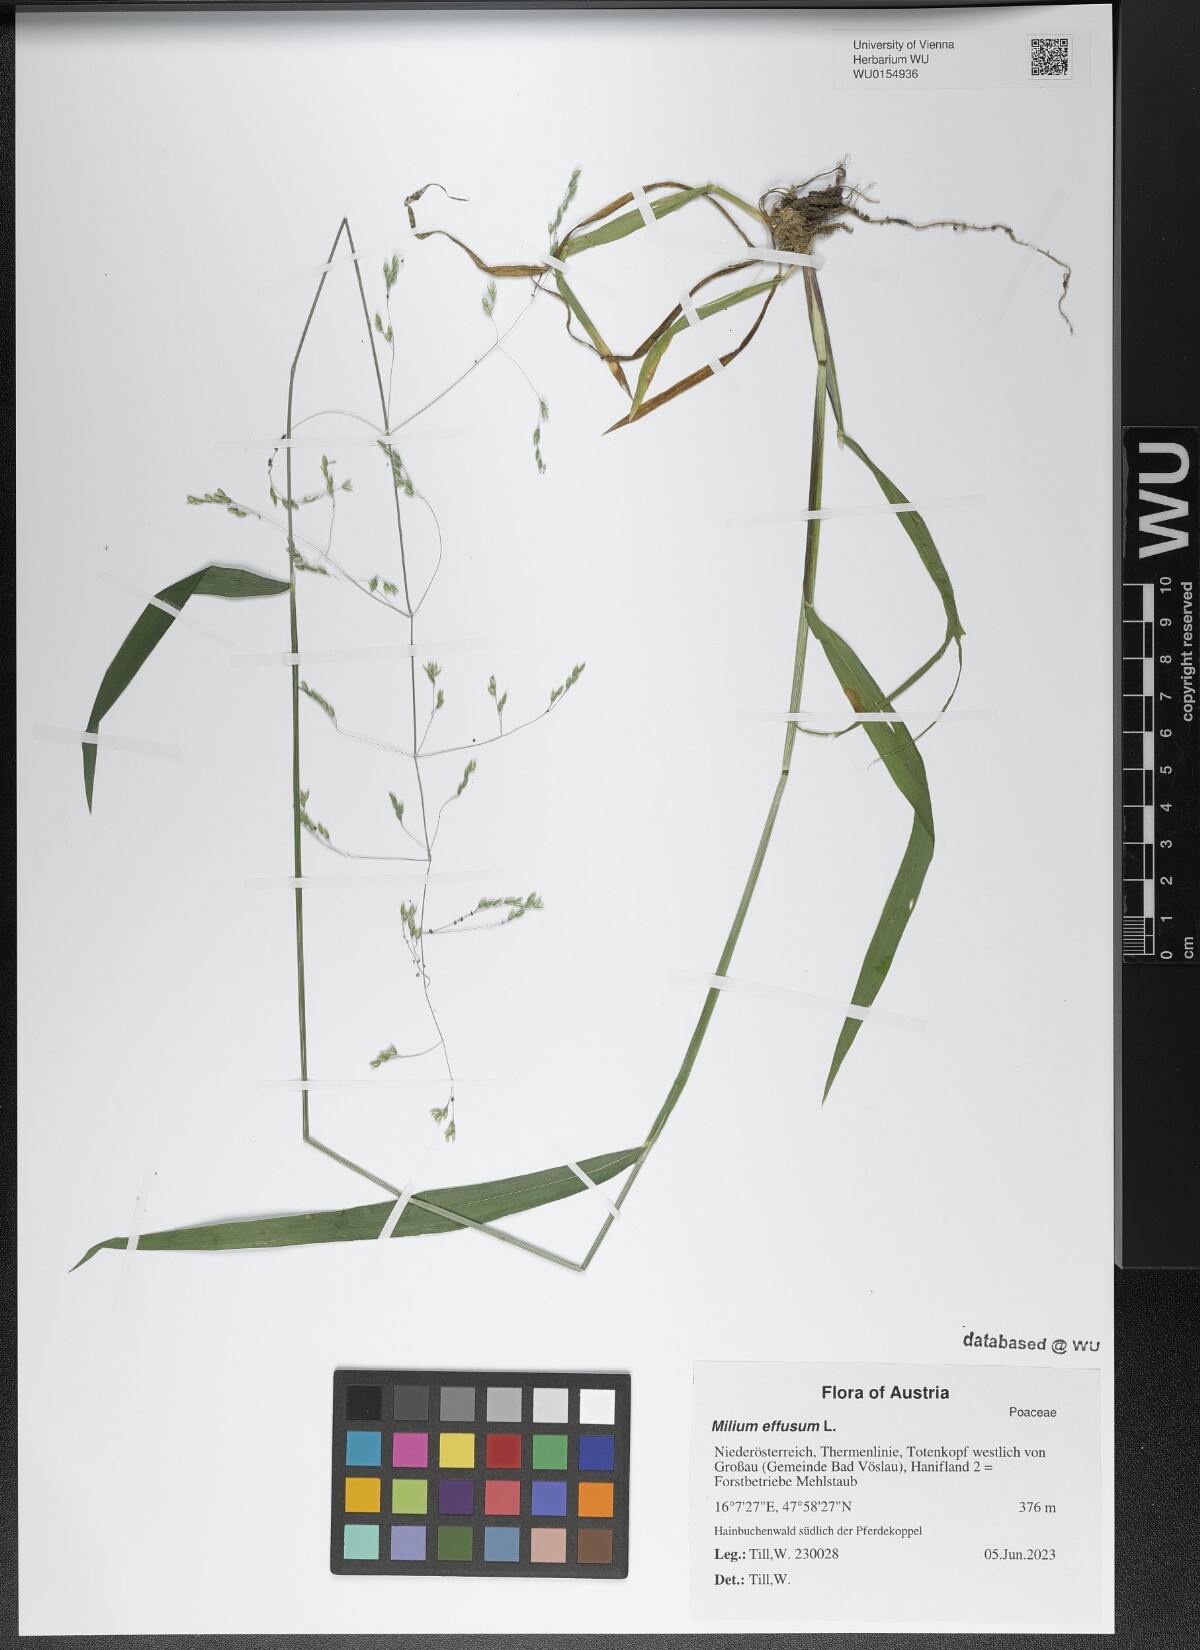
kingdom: Plantae
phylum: Tracheophyta
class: Liliopsida
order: Poales
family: Poaceae
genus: Milium
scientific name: Milium effusum
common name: Wood millet
